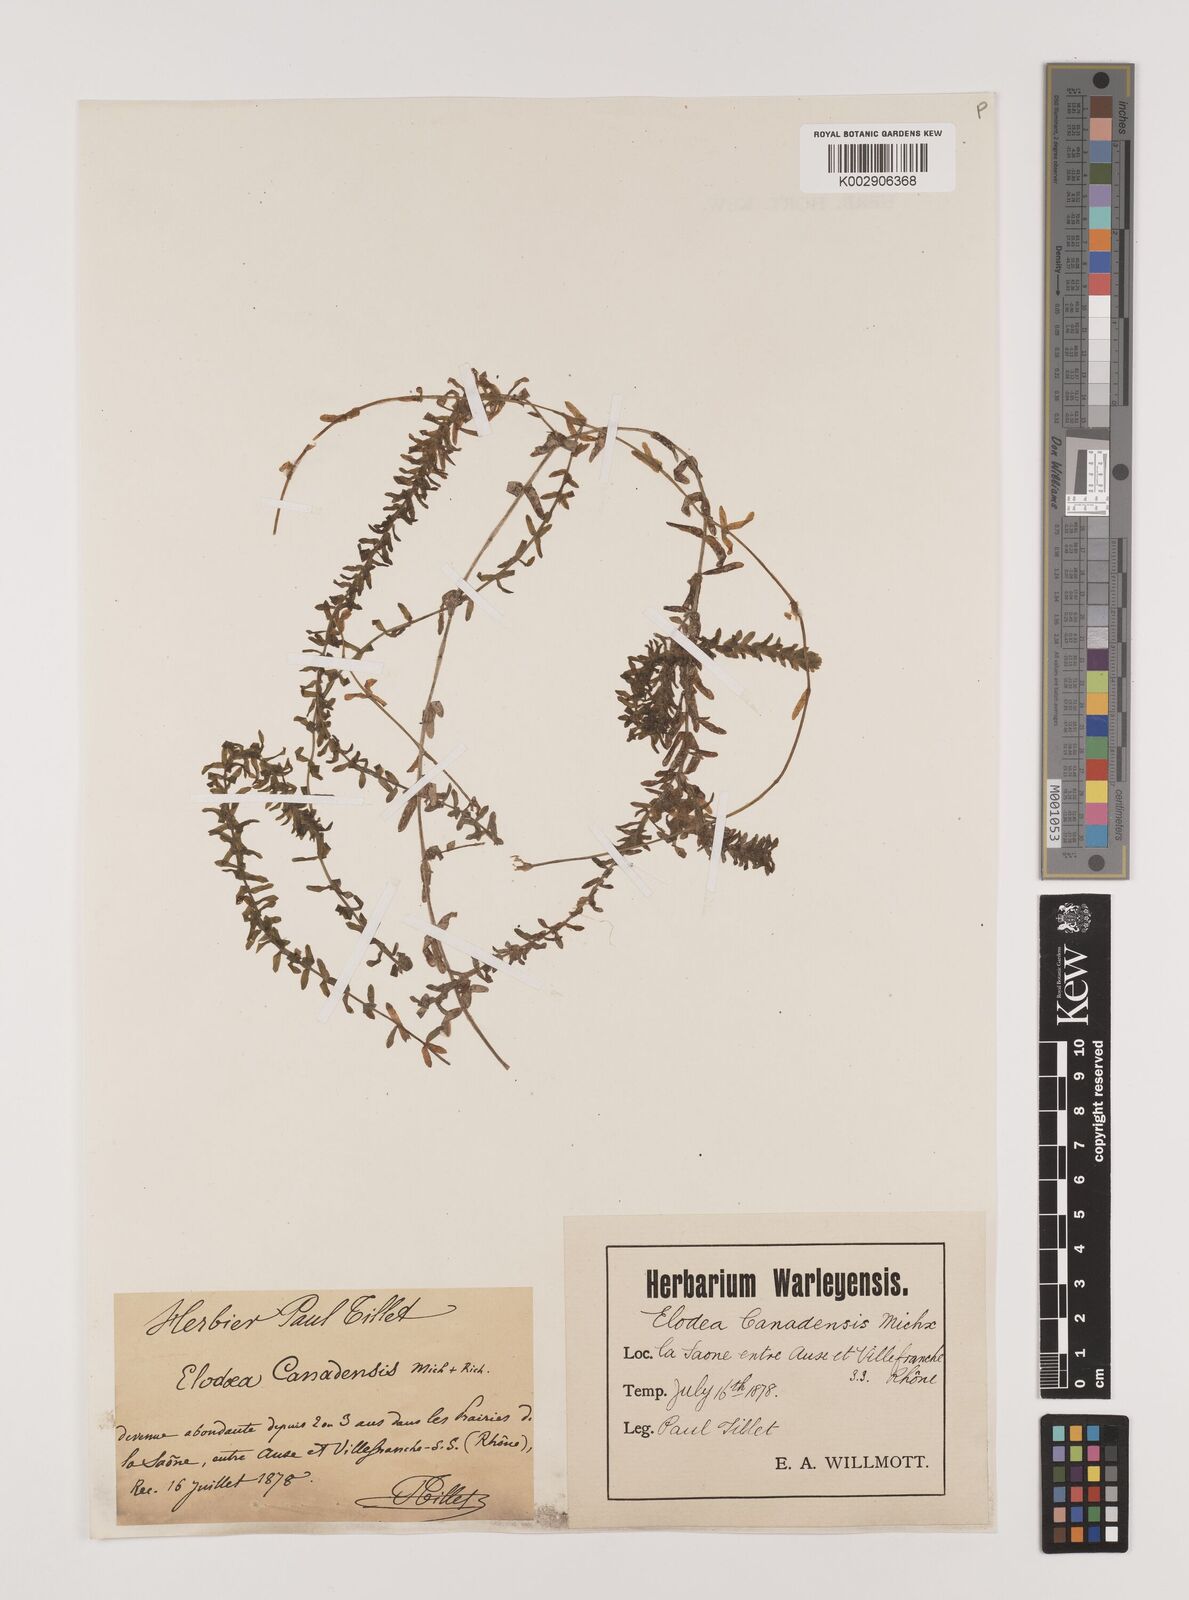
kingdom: Plantae
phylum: Tracheophyta
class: Liliopsida
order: Alismatales
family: Hydrocharitaceae
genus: Elodea
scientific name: Elodea canadensis
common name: Canadian waterweed
